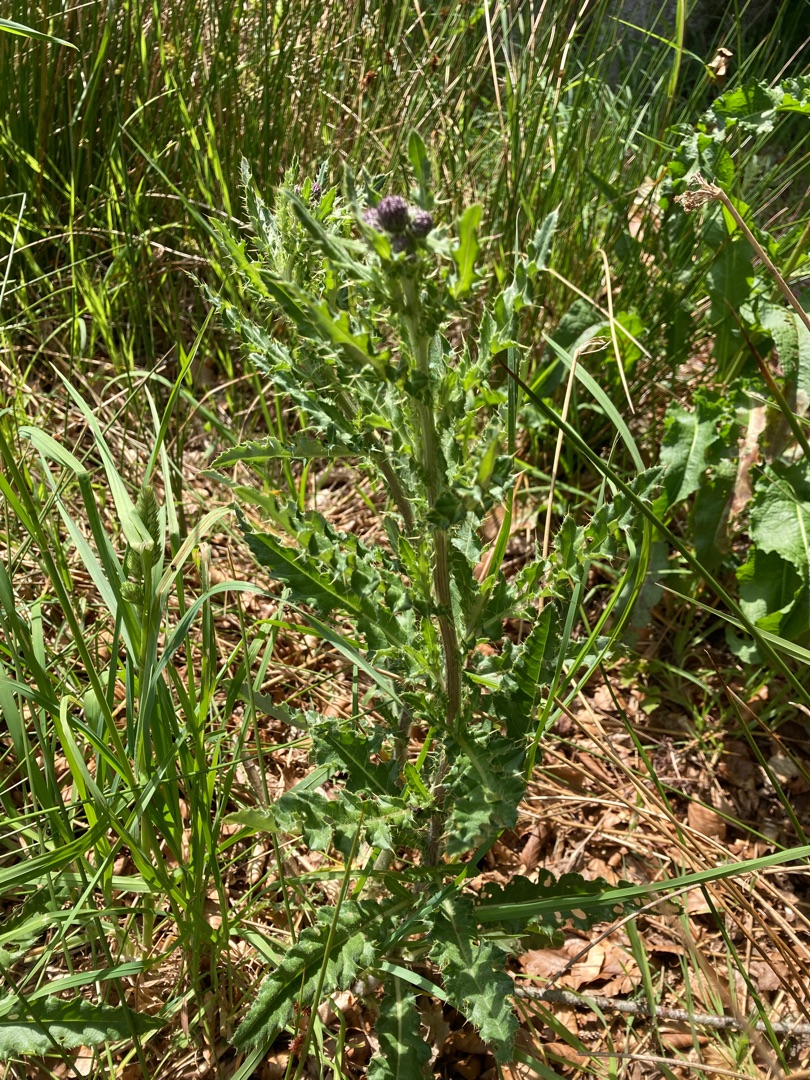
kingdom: Plantae
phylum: Tracheophyta
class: Magnoliopsida
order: Asterales
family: Asteraceae
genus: Cirsium
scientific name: Cirsium arvense
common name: Ager-tidsel
